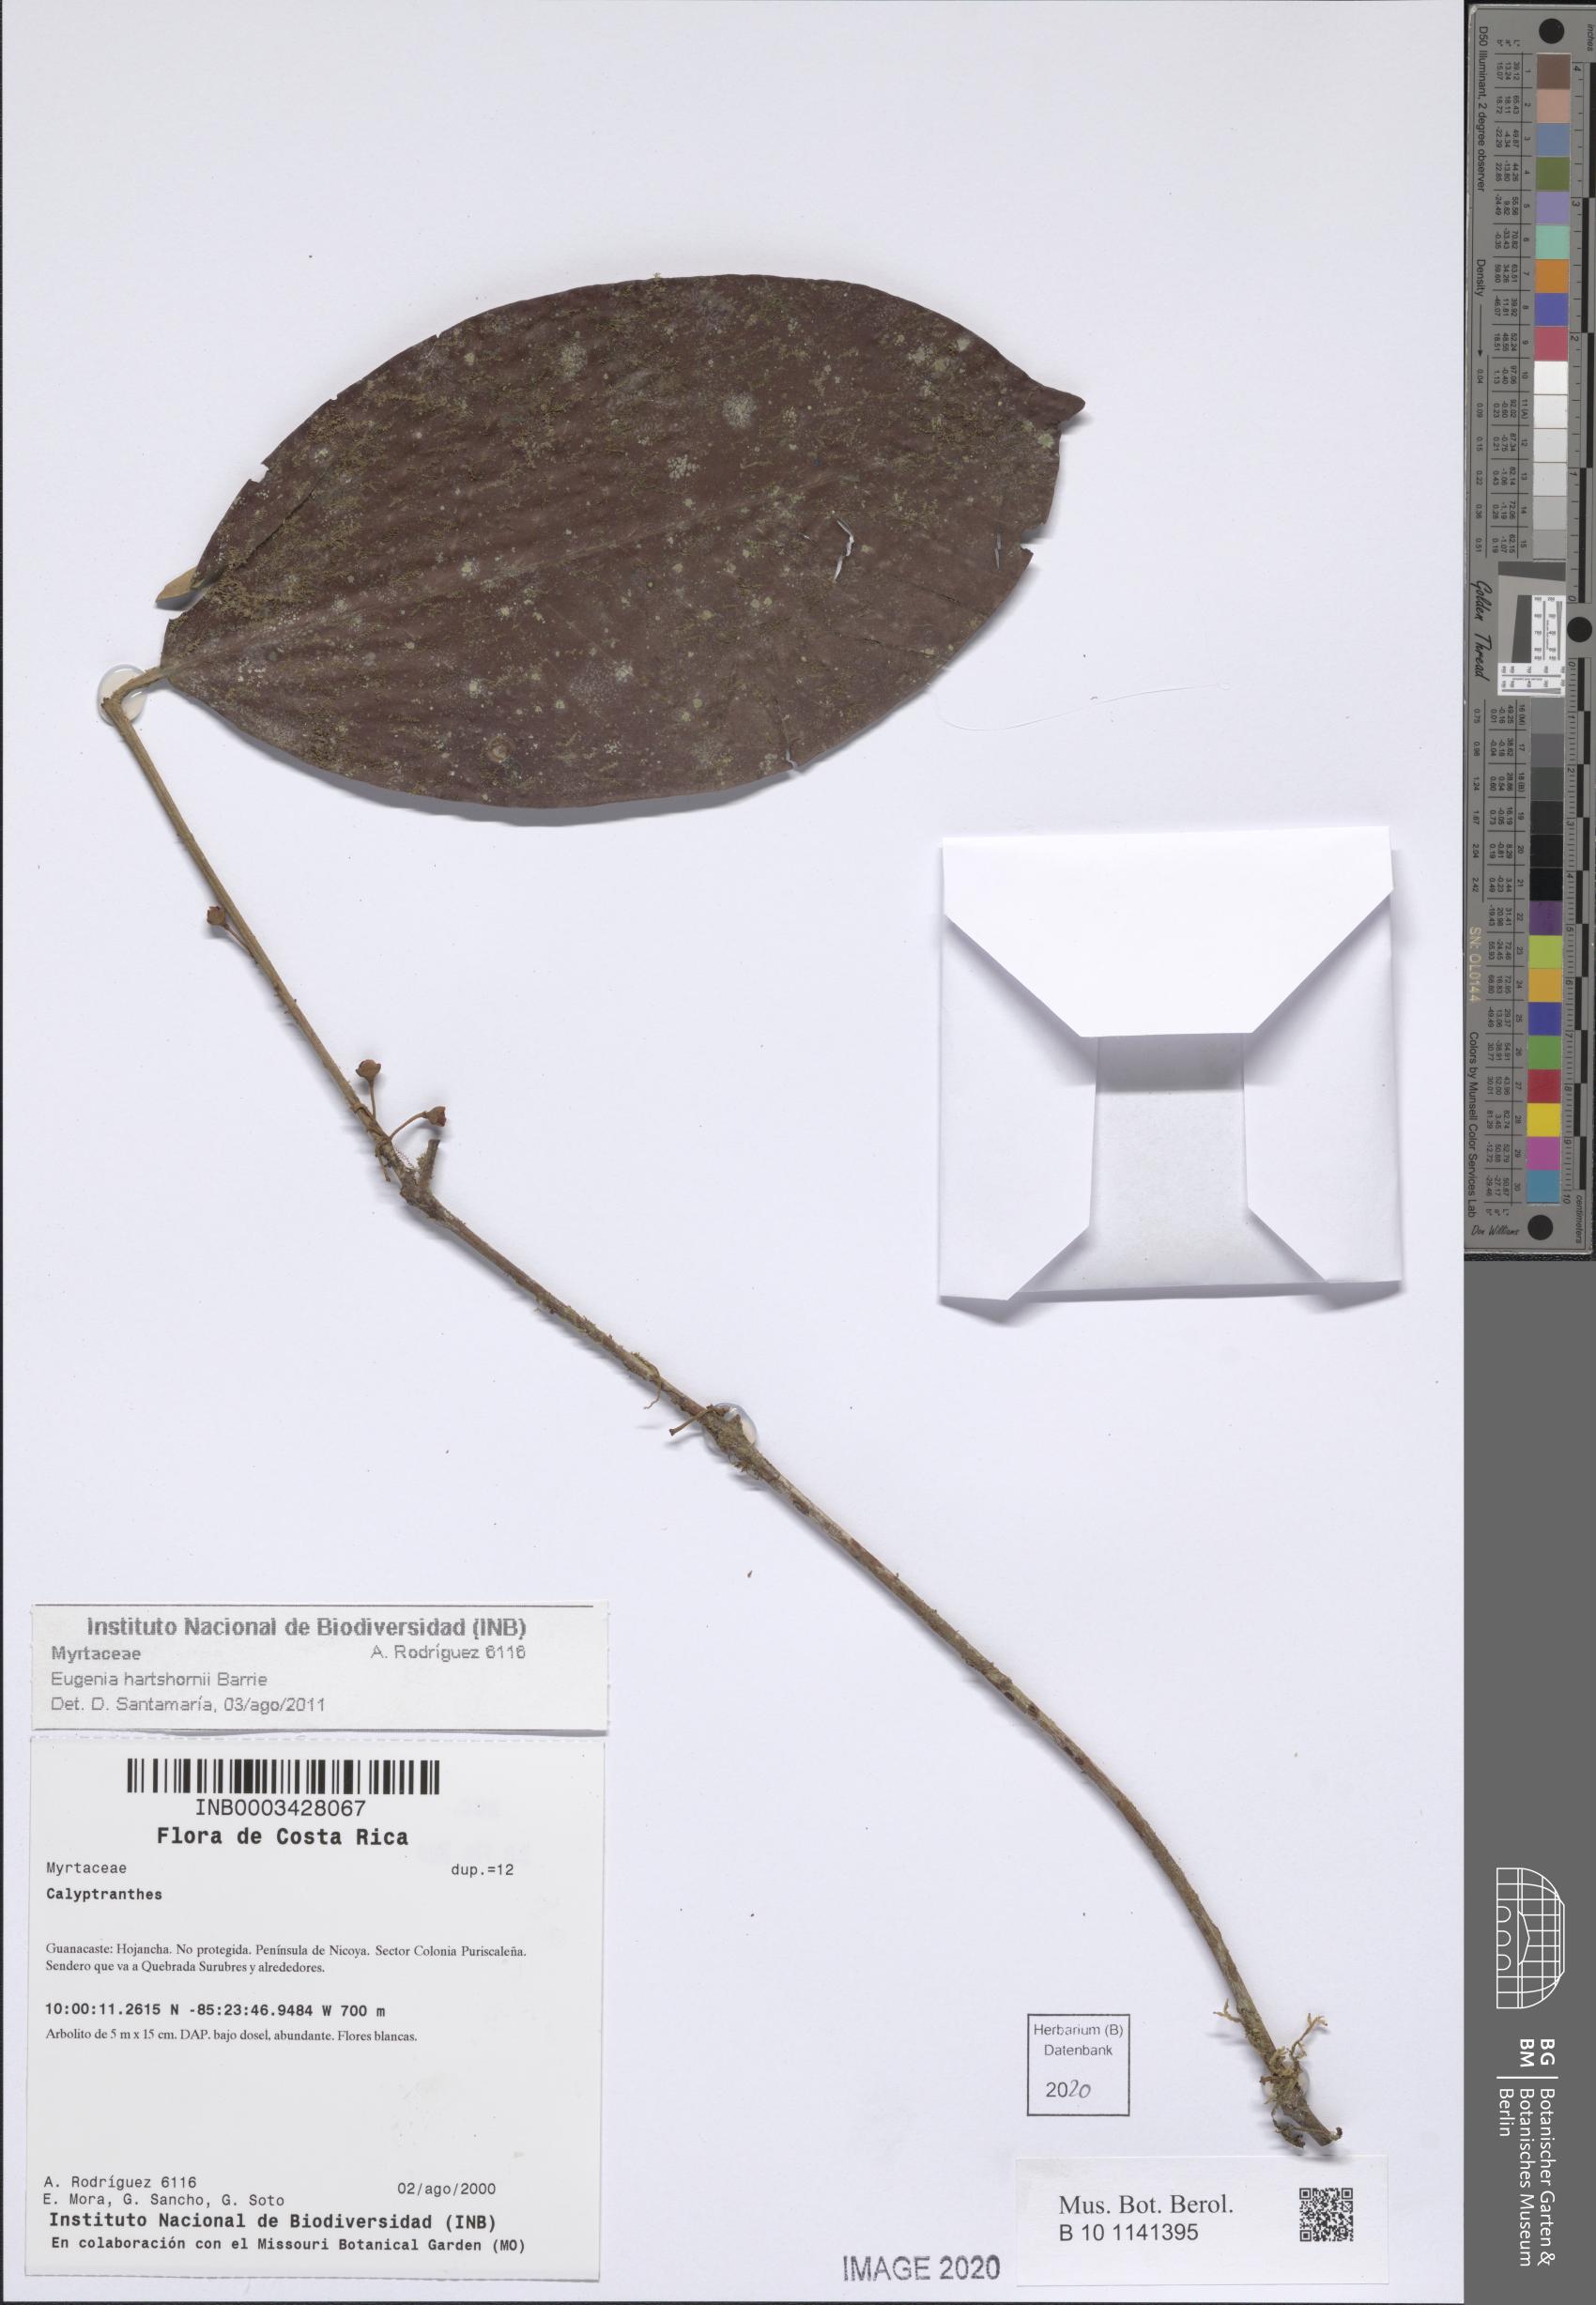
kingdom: Plantae
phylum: Tracheophyta
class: Magnoliopsida
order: Myrtales
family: Myrtaceae
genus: Calyptranthes
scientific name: Calyptranthes
